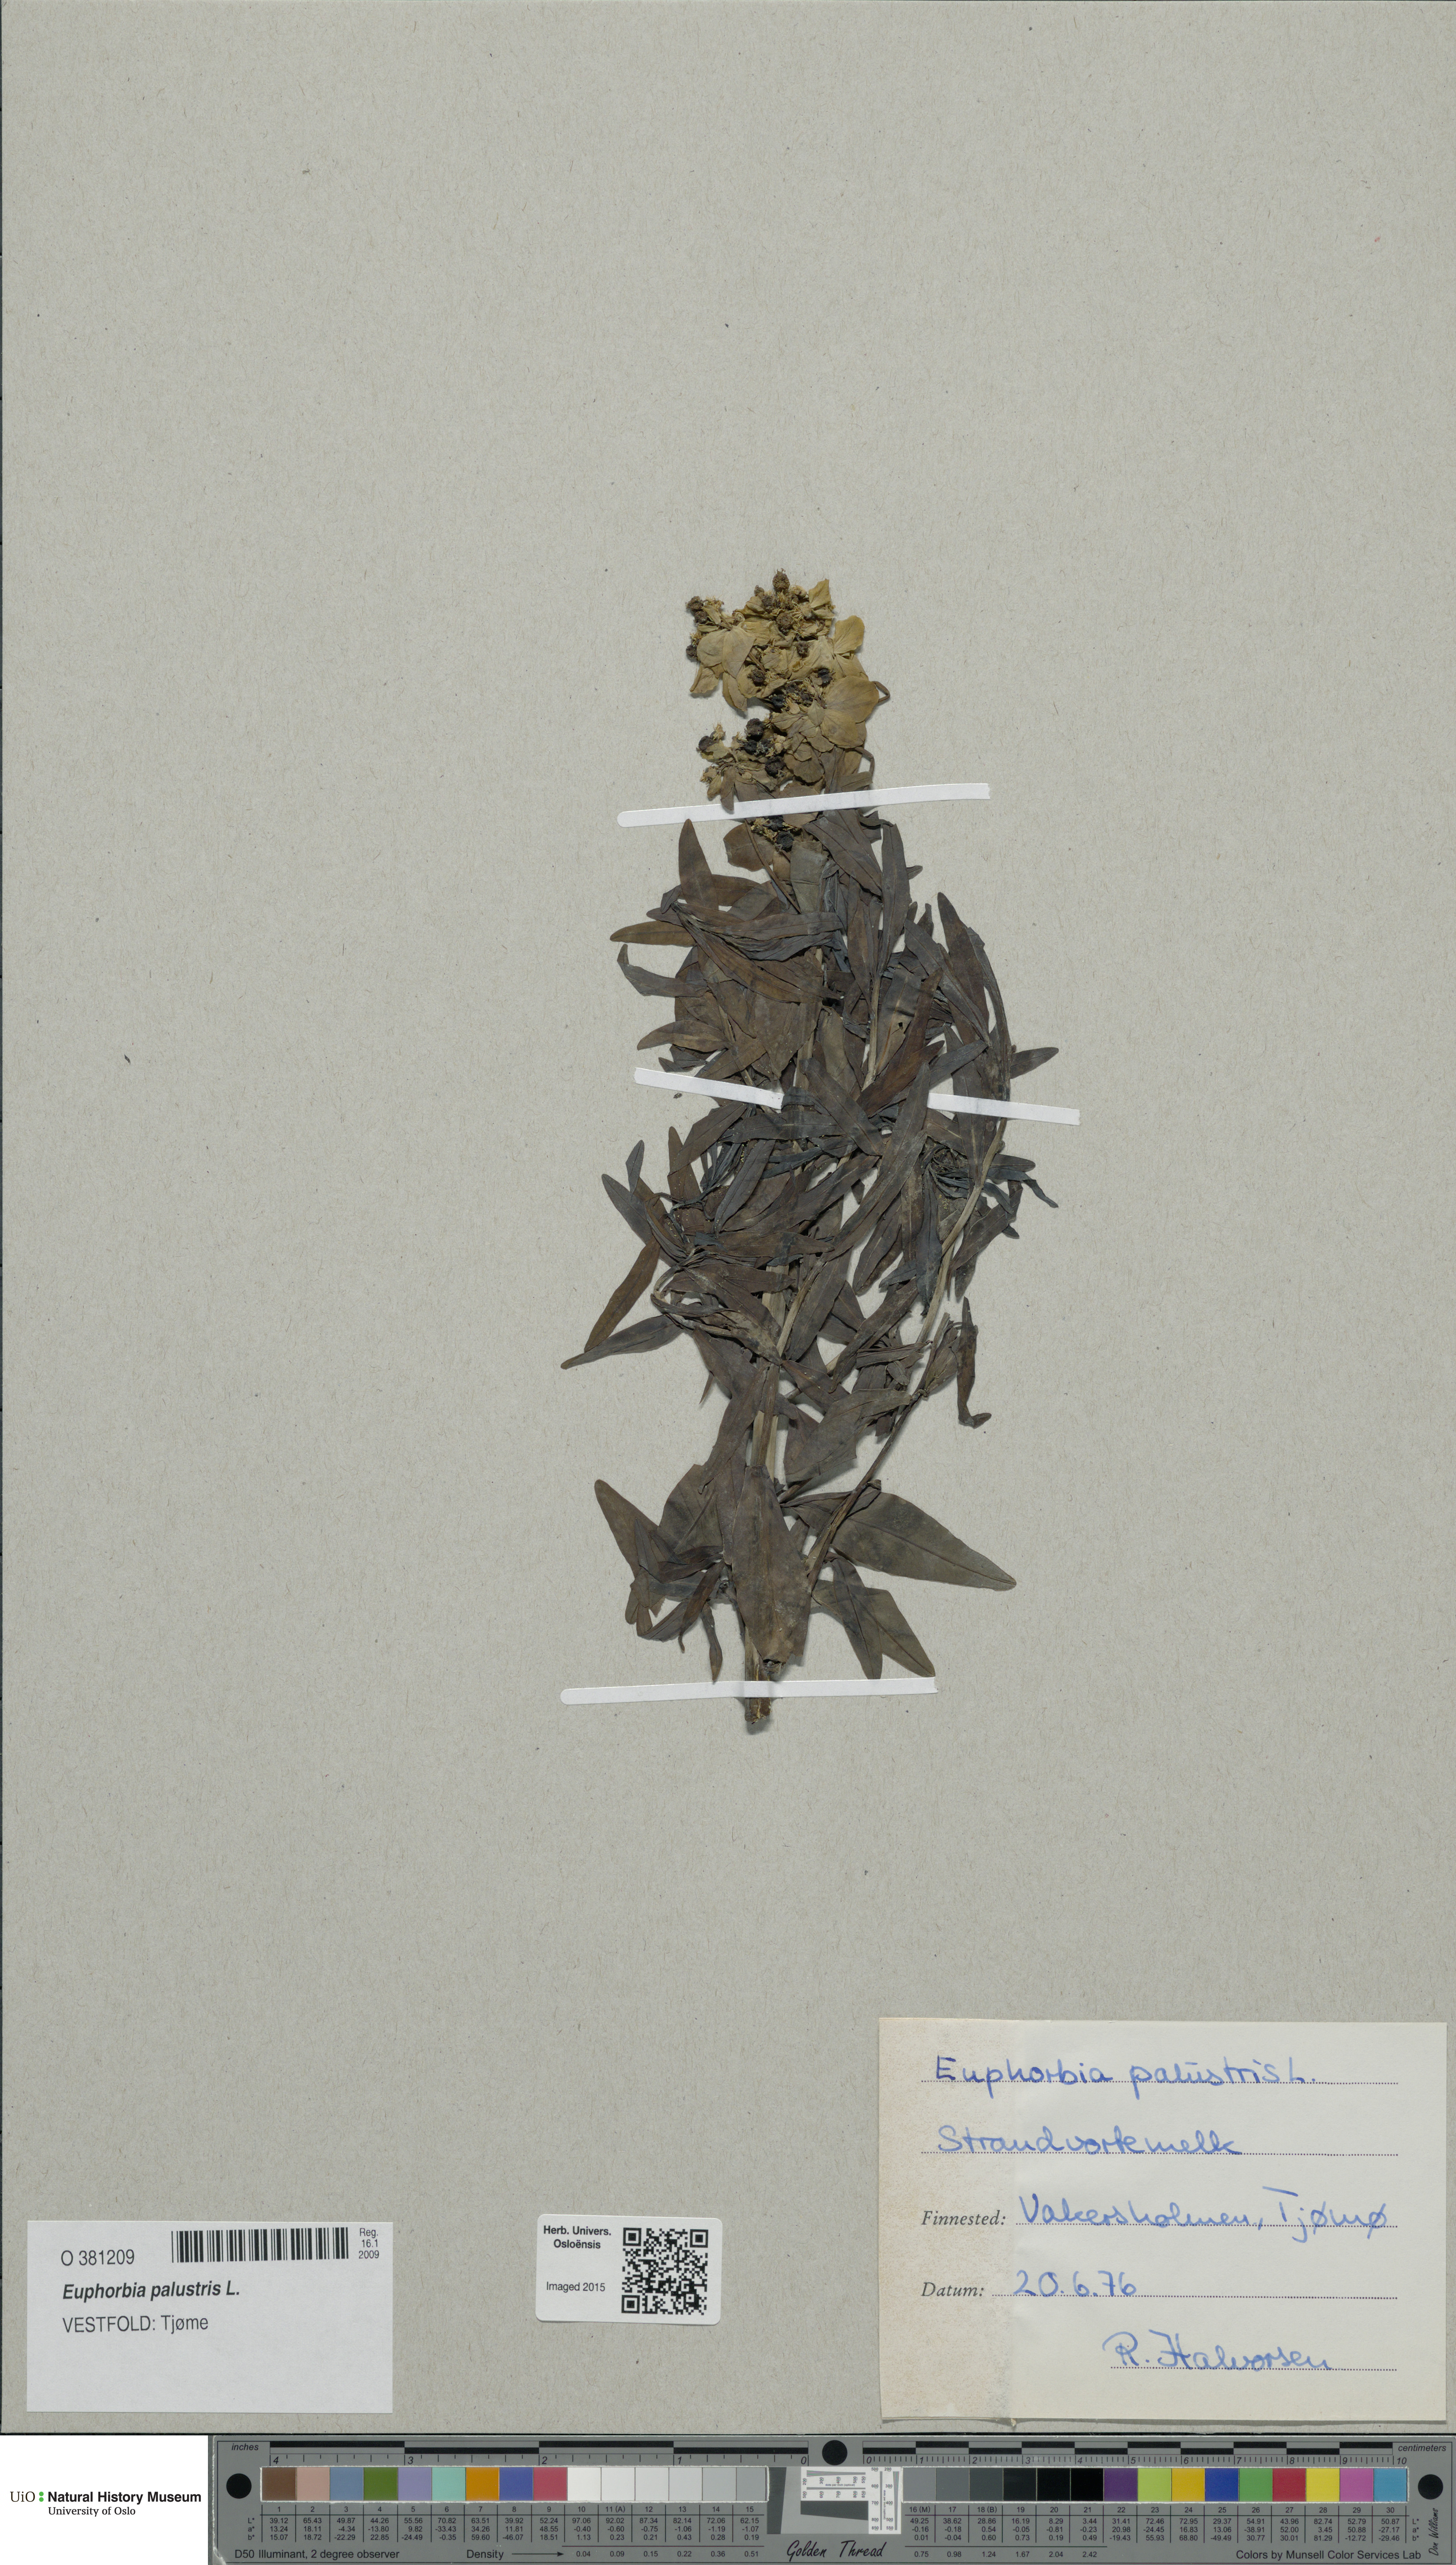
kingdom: Plantae
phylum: Tracheophyta
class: Magnoliopsida
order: Malpighiales
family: Euphorbiaceae
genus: Euphorbia
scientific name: Euphorbia palustris
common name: Marsh spurge
